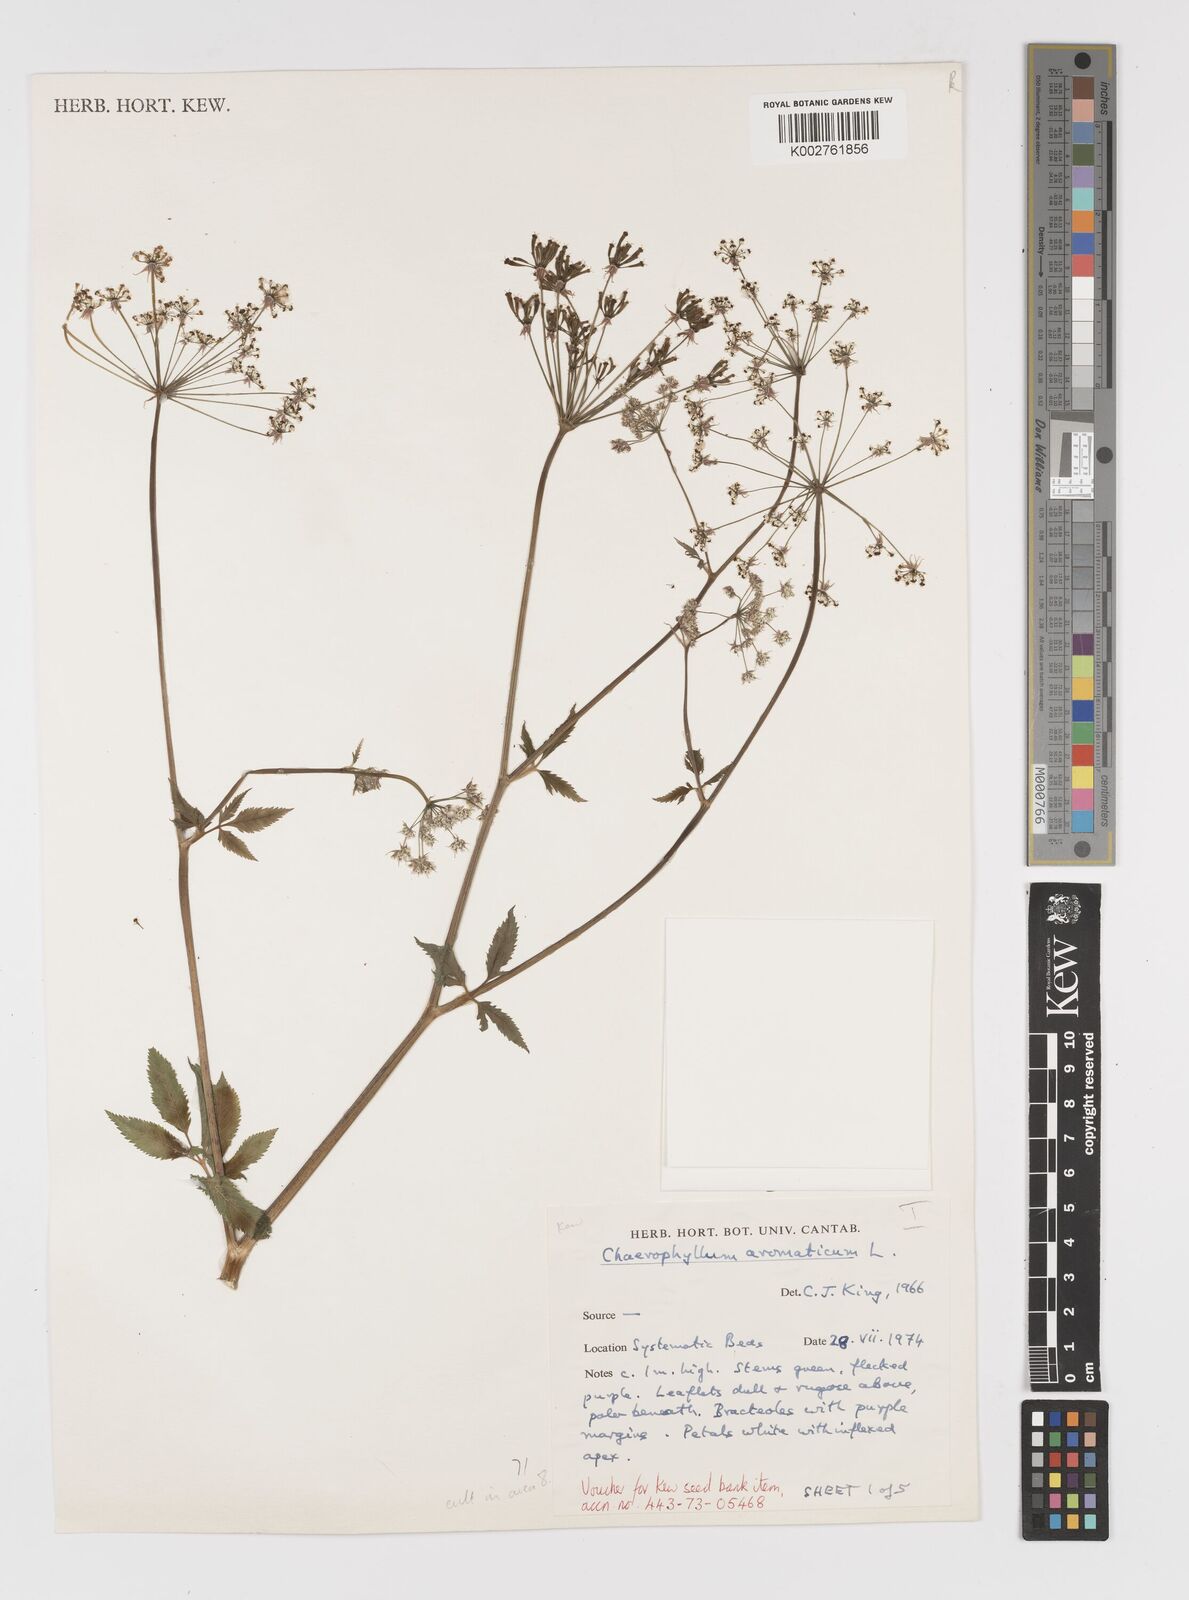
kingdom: Plantae
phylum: Tracheophyta
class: Magnoliopsida
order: Apiales
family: Apiaceae
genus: Chaerophyllum
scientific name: Chaerophyllum aromaticum
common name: Broadleaf chervil
